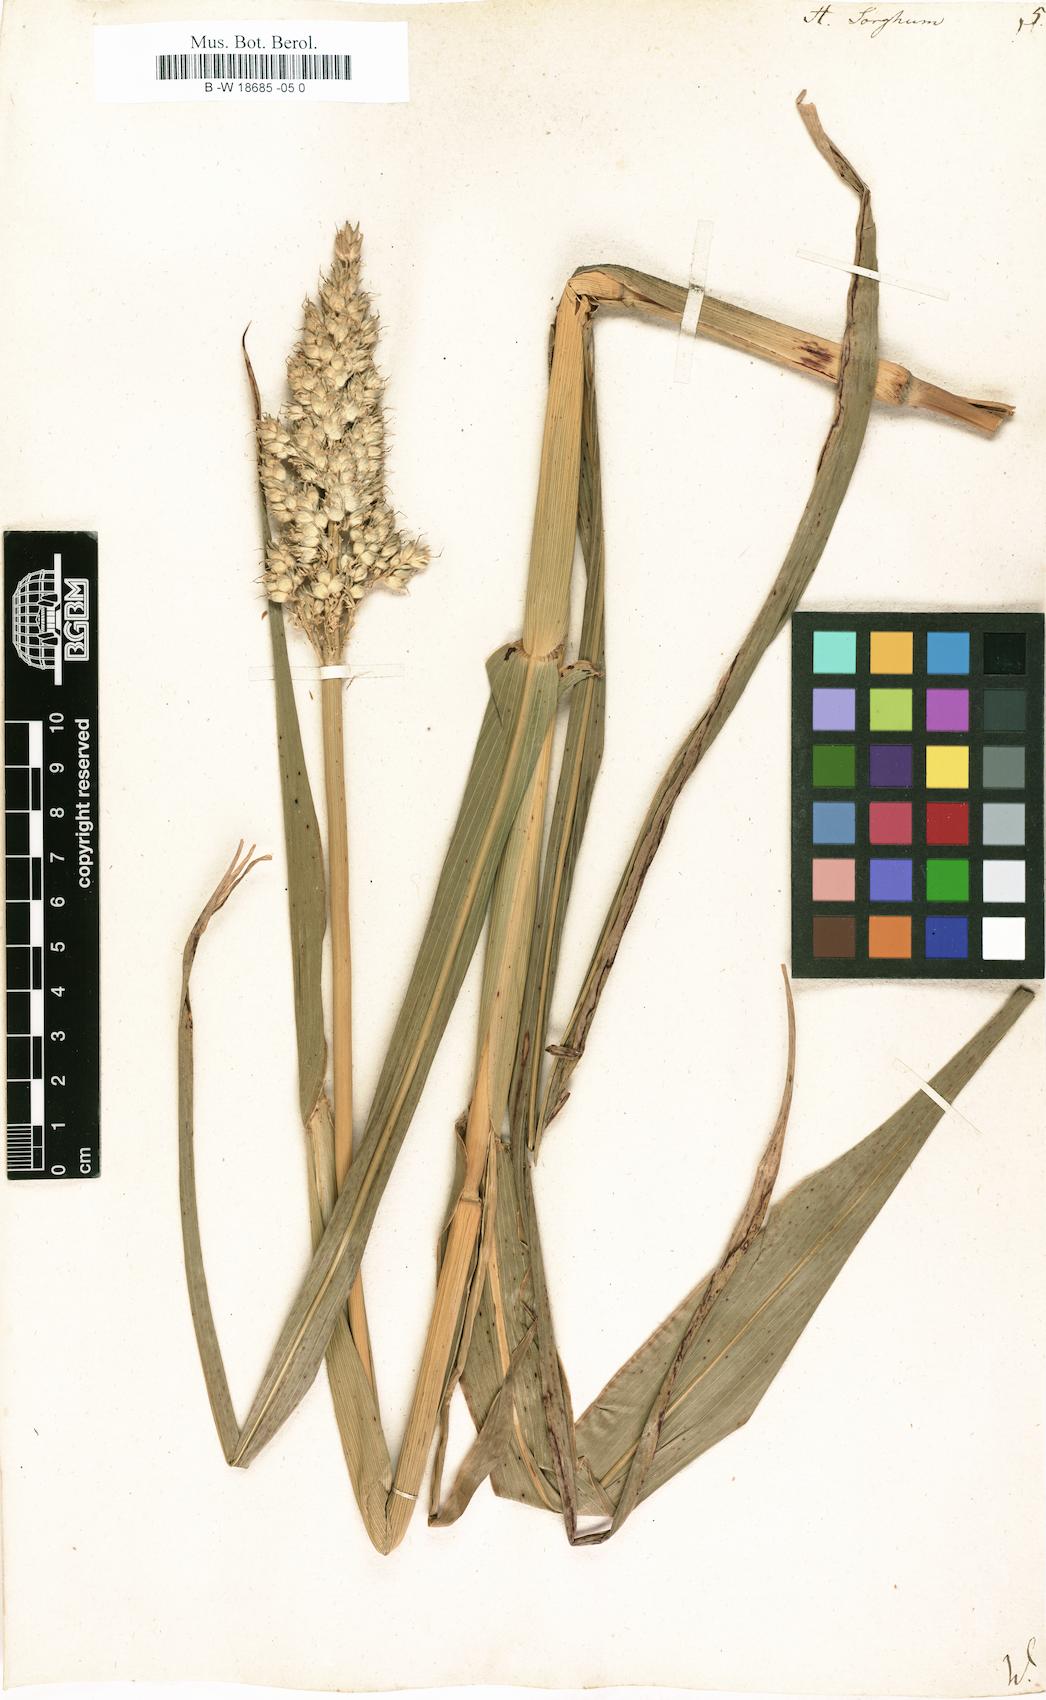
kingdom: Plantae
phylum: Tracheophyta
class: Liliopsida
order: Poales
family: Poaceae
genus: Sorghum
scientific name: Sorghum bicolor
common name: Sorghum
